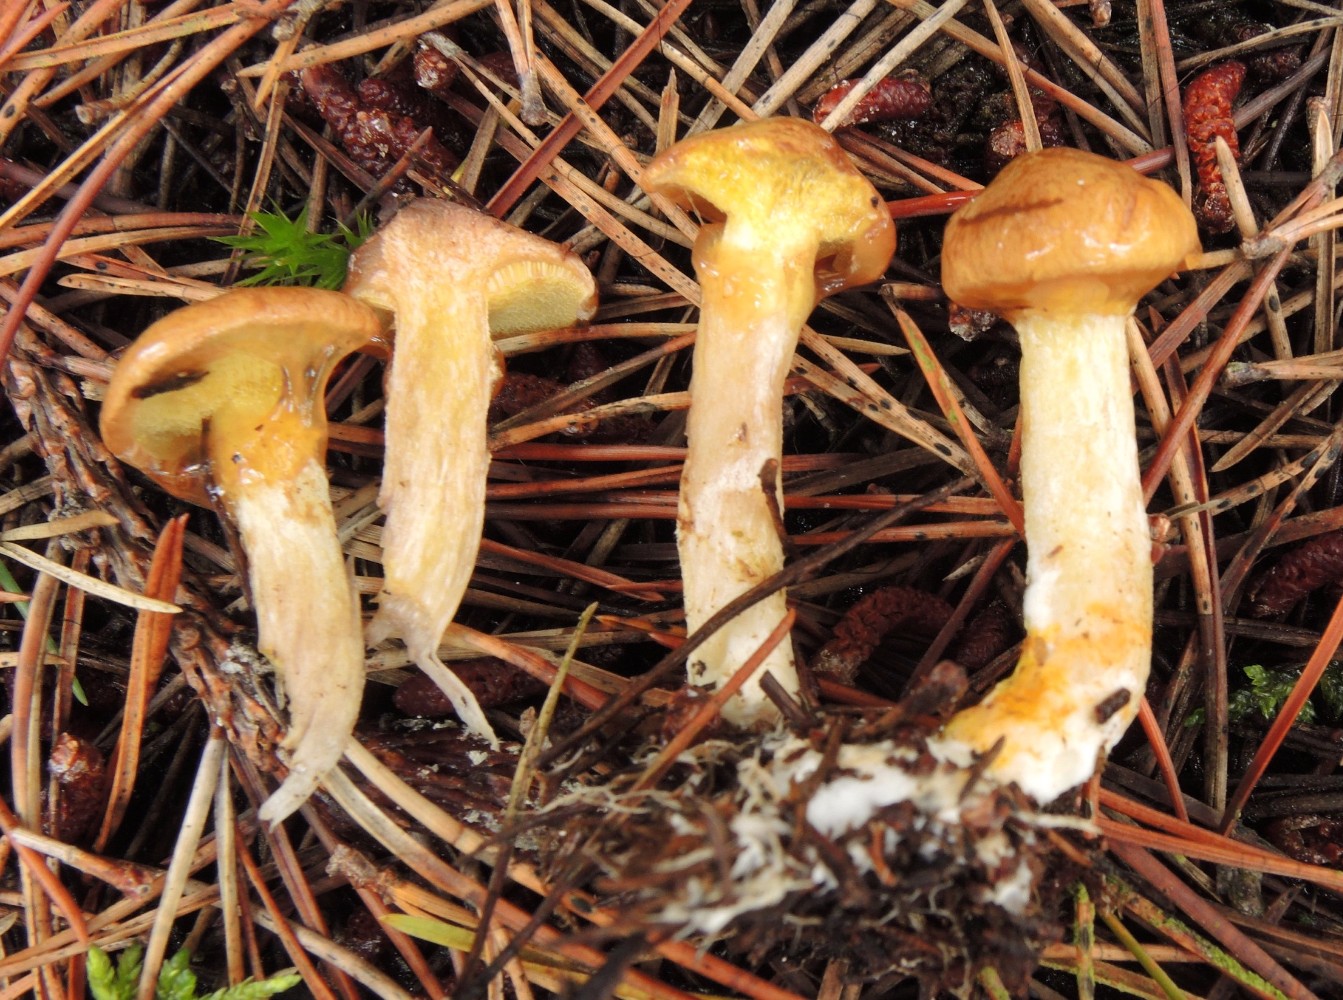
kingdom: Fungi
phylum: Basidiomycota
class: Agaricomycetes
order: Boletales
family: Suillaceae
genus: Suillus
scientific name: Suillus flavidus
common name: mose-slimrørhat
